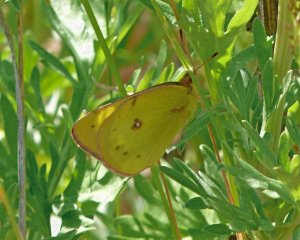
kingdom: Animalia
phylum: Arthropoda
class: Insecta
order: Lepidoptera
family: Pieridae
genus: Colias
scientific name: Colias philodice
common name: Clouded Sulphur
